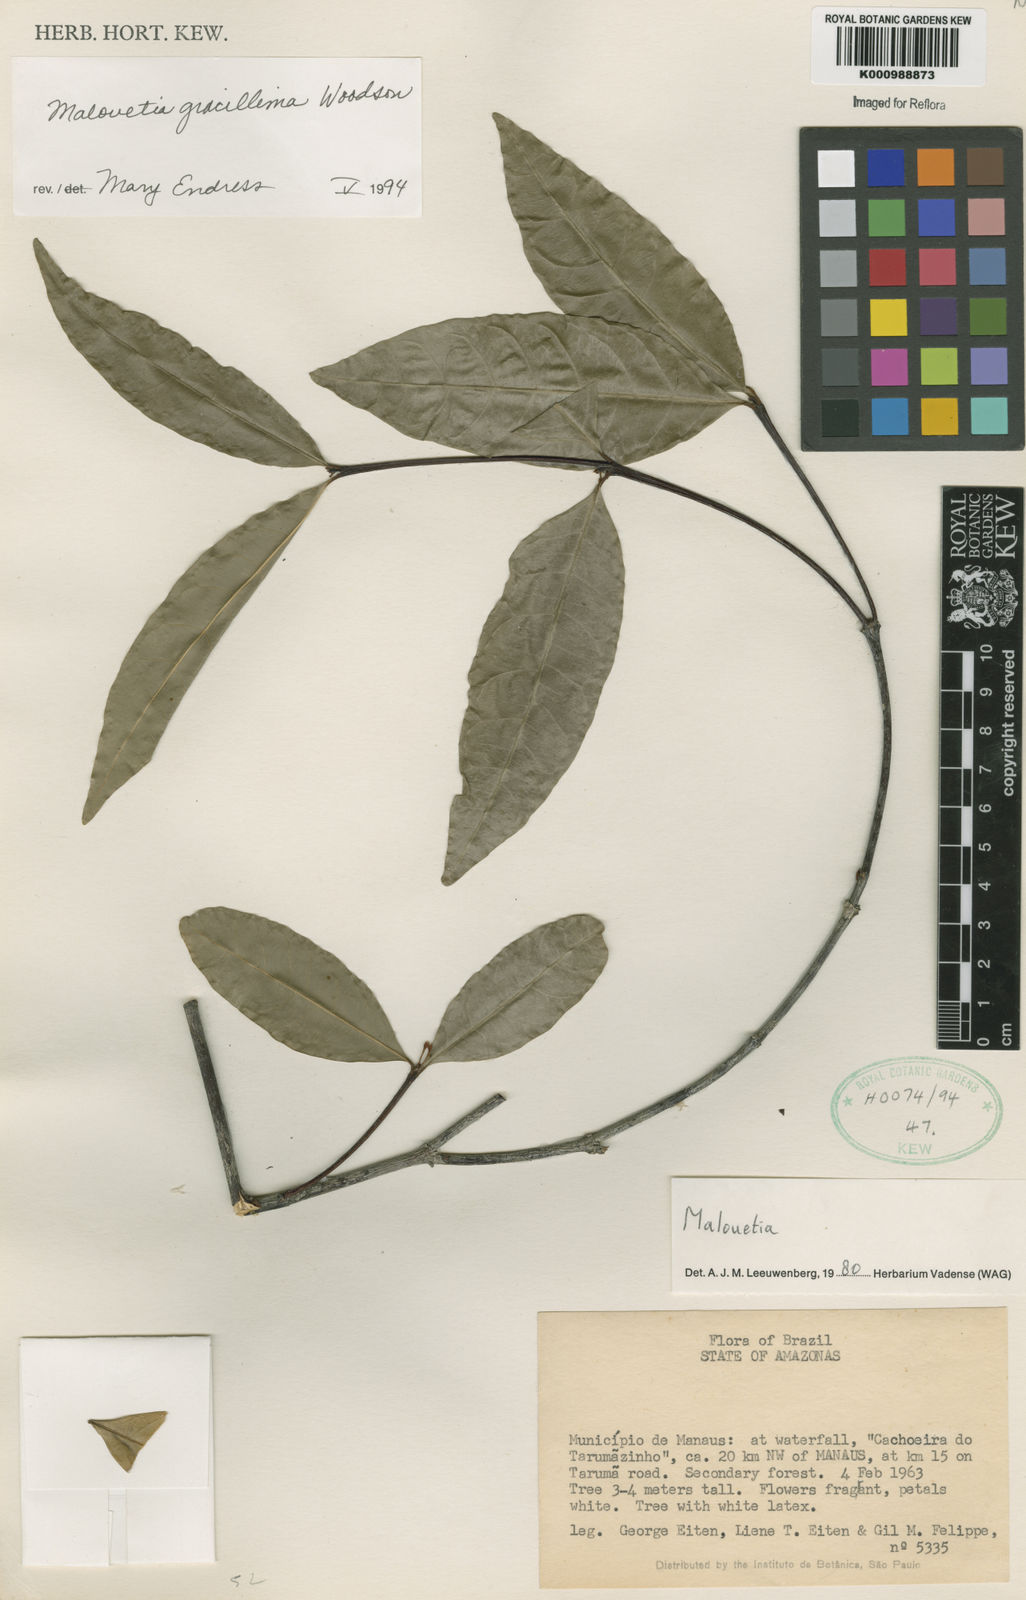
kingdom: Plantae
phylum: Tracheophyta
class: Magnoliopsida
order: Gentianales
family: Apocynaceae
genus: Malouetia
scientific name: Malouetia gracillima
